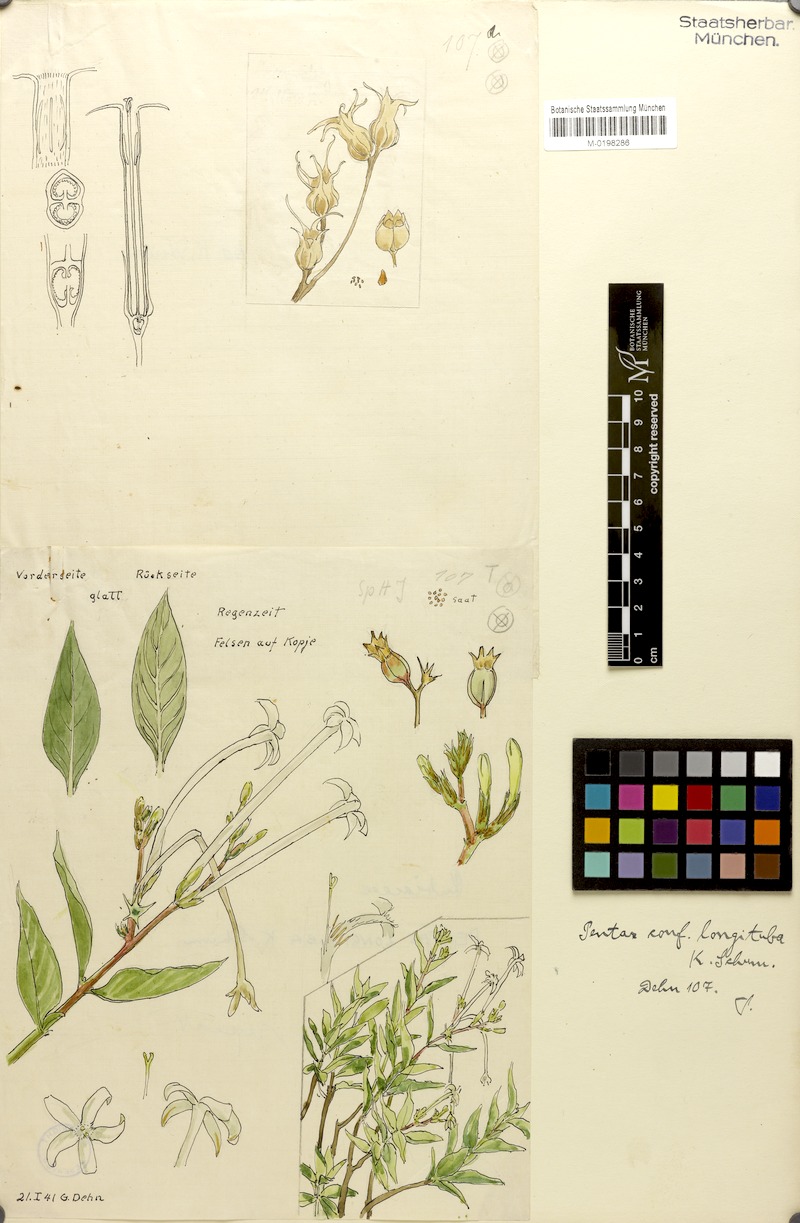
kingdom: Plantae
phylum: Tracheophyta
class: Magnoliopsida
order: Gentianales
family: Rubiaceae
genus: Chamaepentas
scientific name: Chamaepentas longituba
